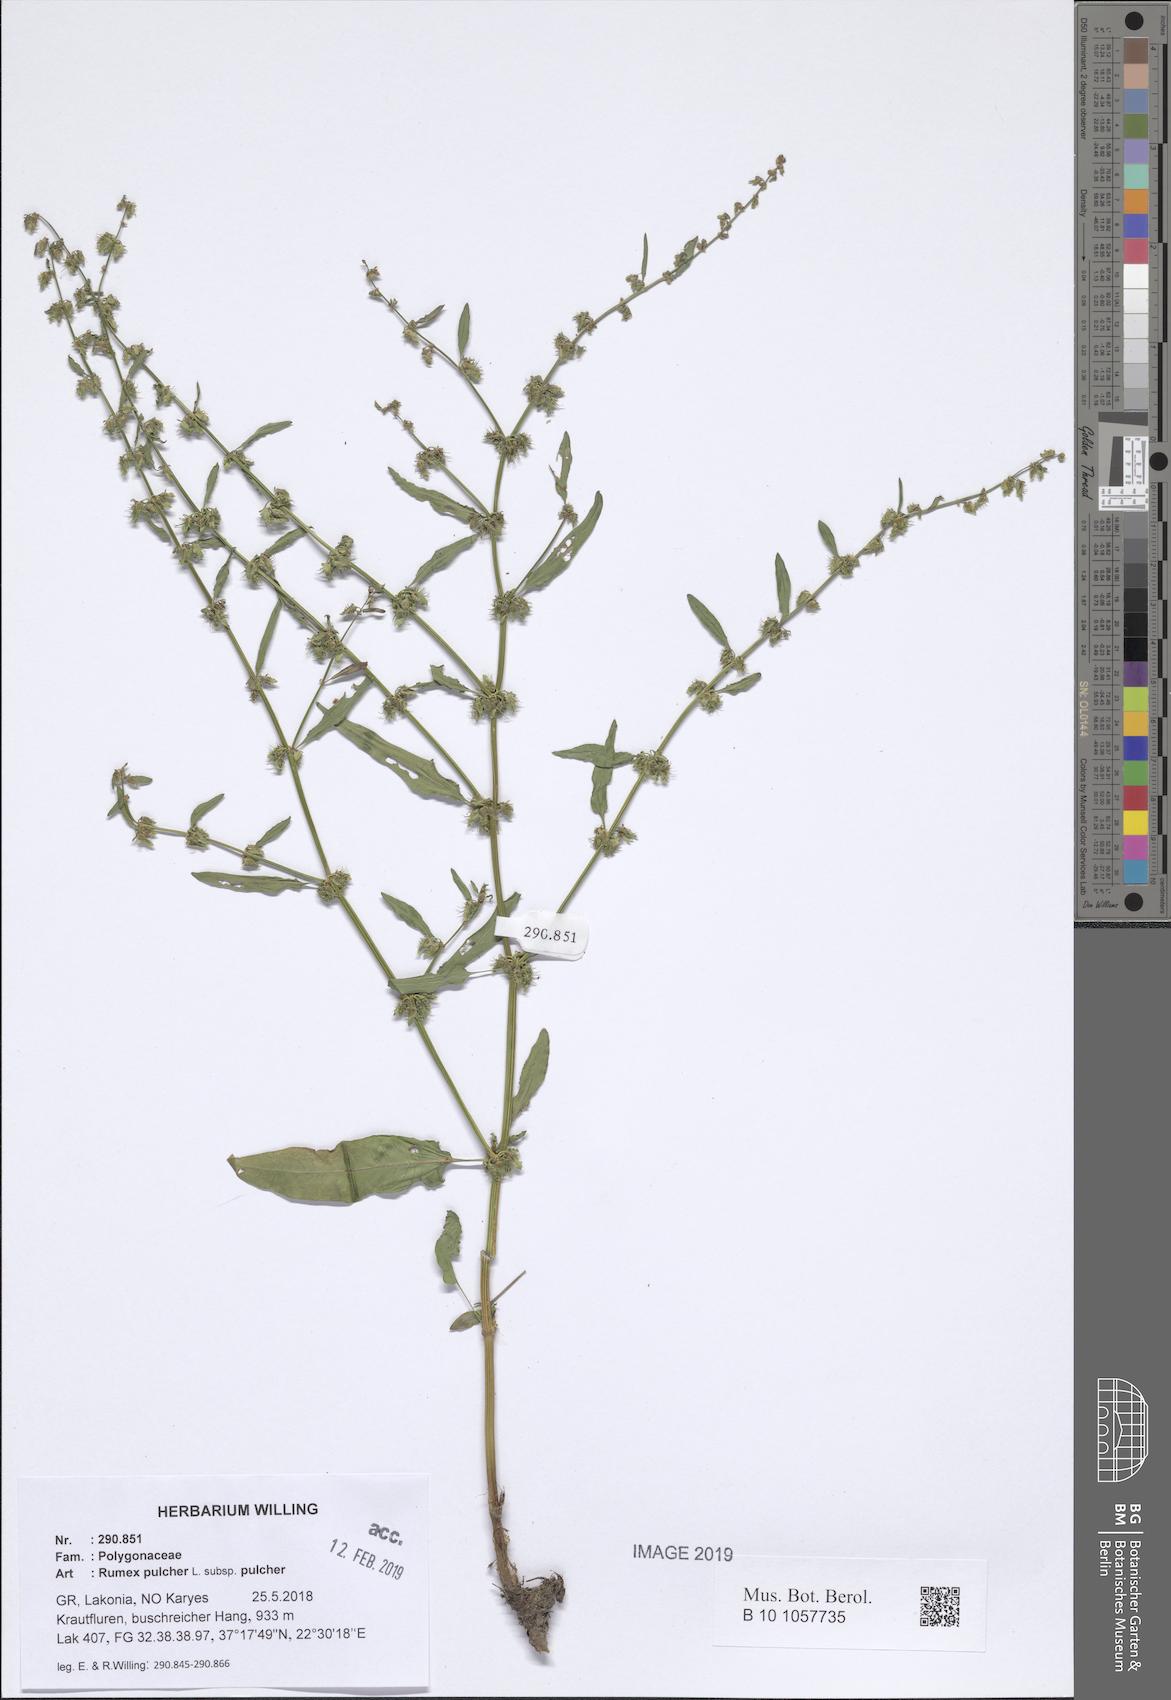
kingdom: Plantae
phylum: Tracheophyta
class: Magnoliopsida
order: Caryophyllales
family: Polygonaceae
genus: Rumex
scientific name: Rumex pulcher
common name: Fiddle dock
